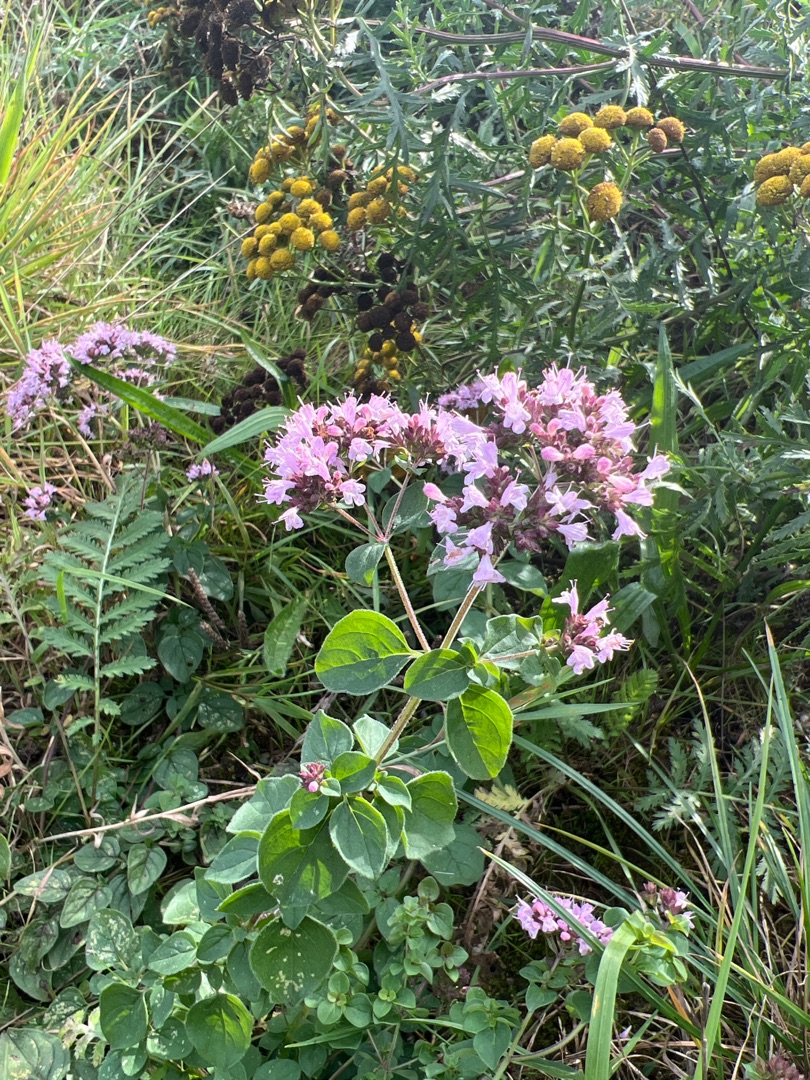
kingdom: Plantae
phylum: Tracheophyta
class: Magnoliopsida
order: Lamiales
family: Lamiaceae
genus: Origanum
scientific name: Origanum vulgare
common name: Merian
